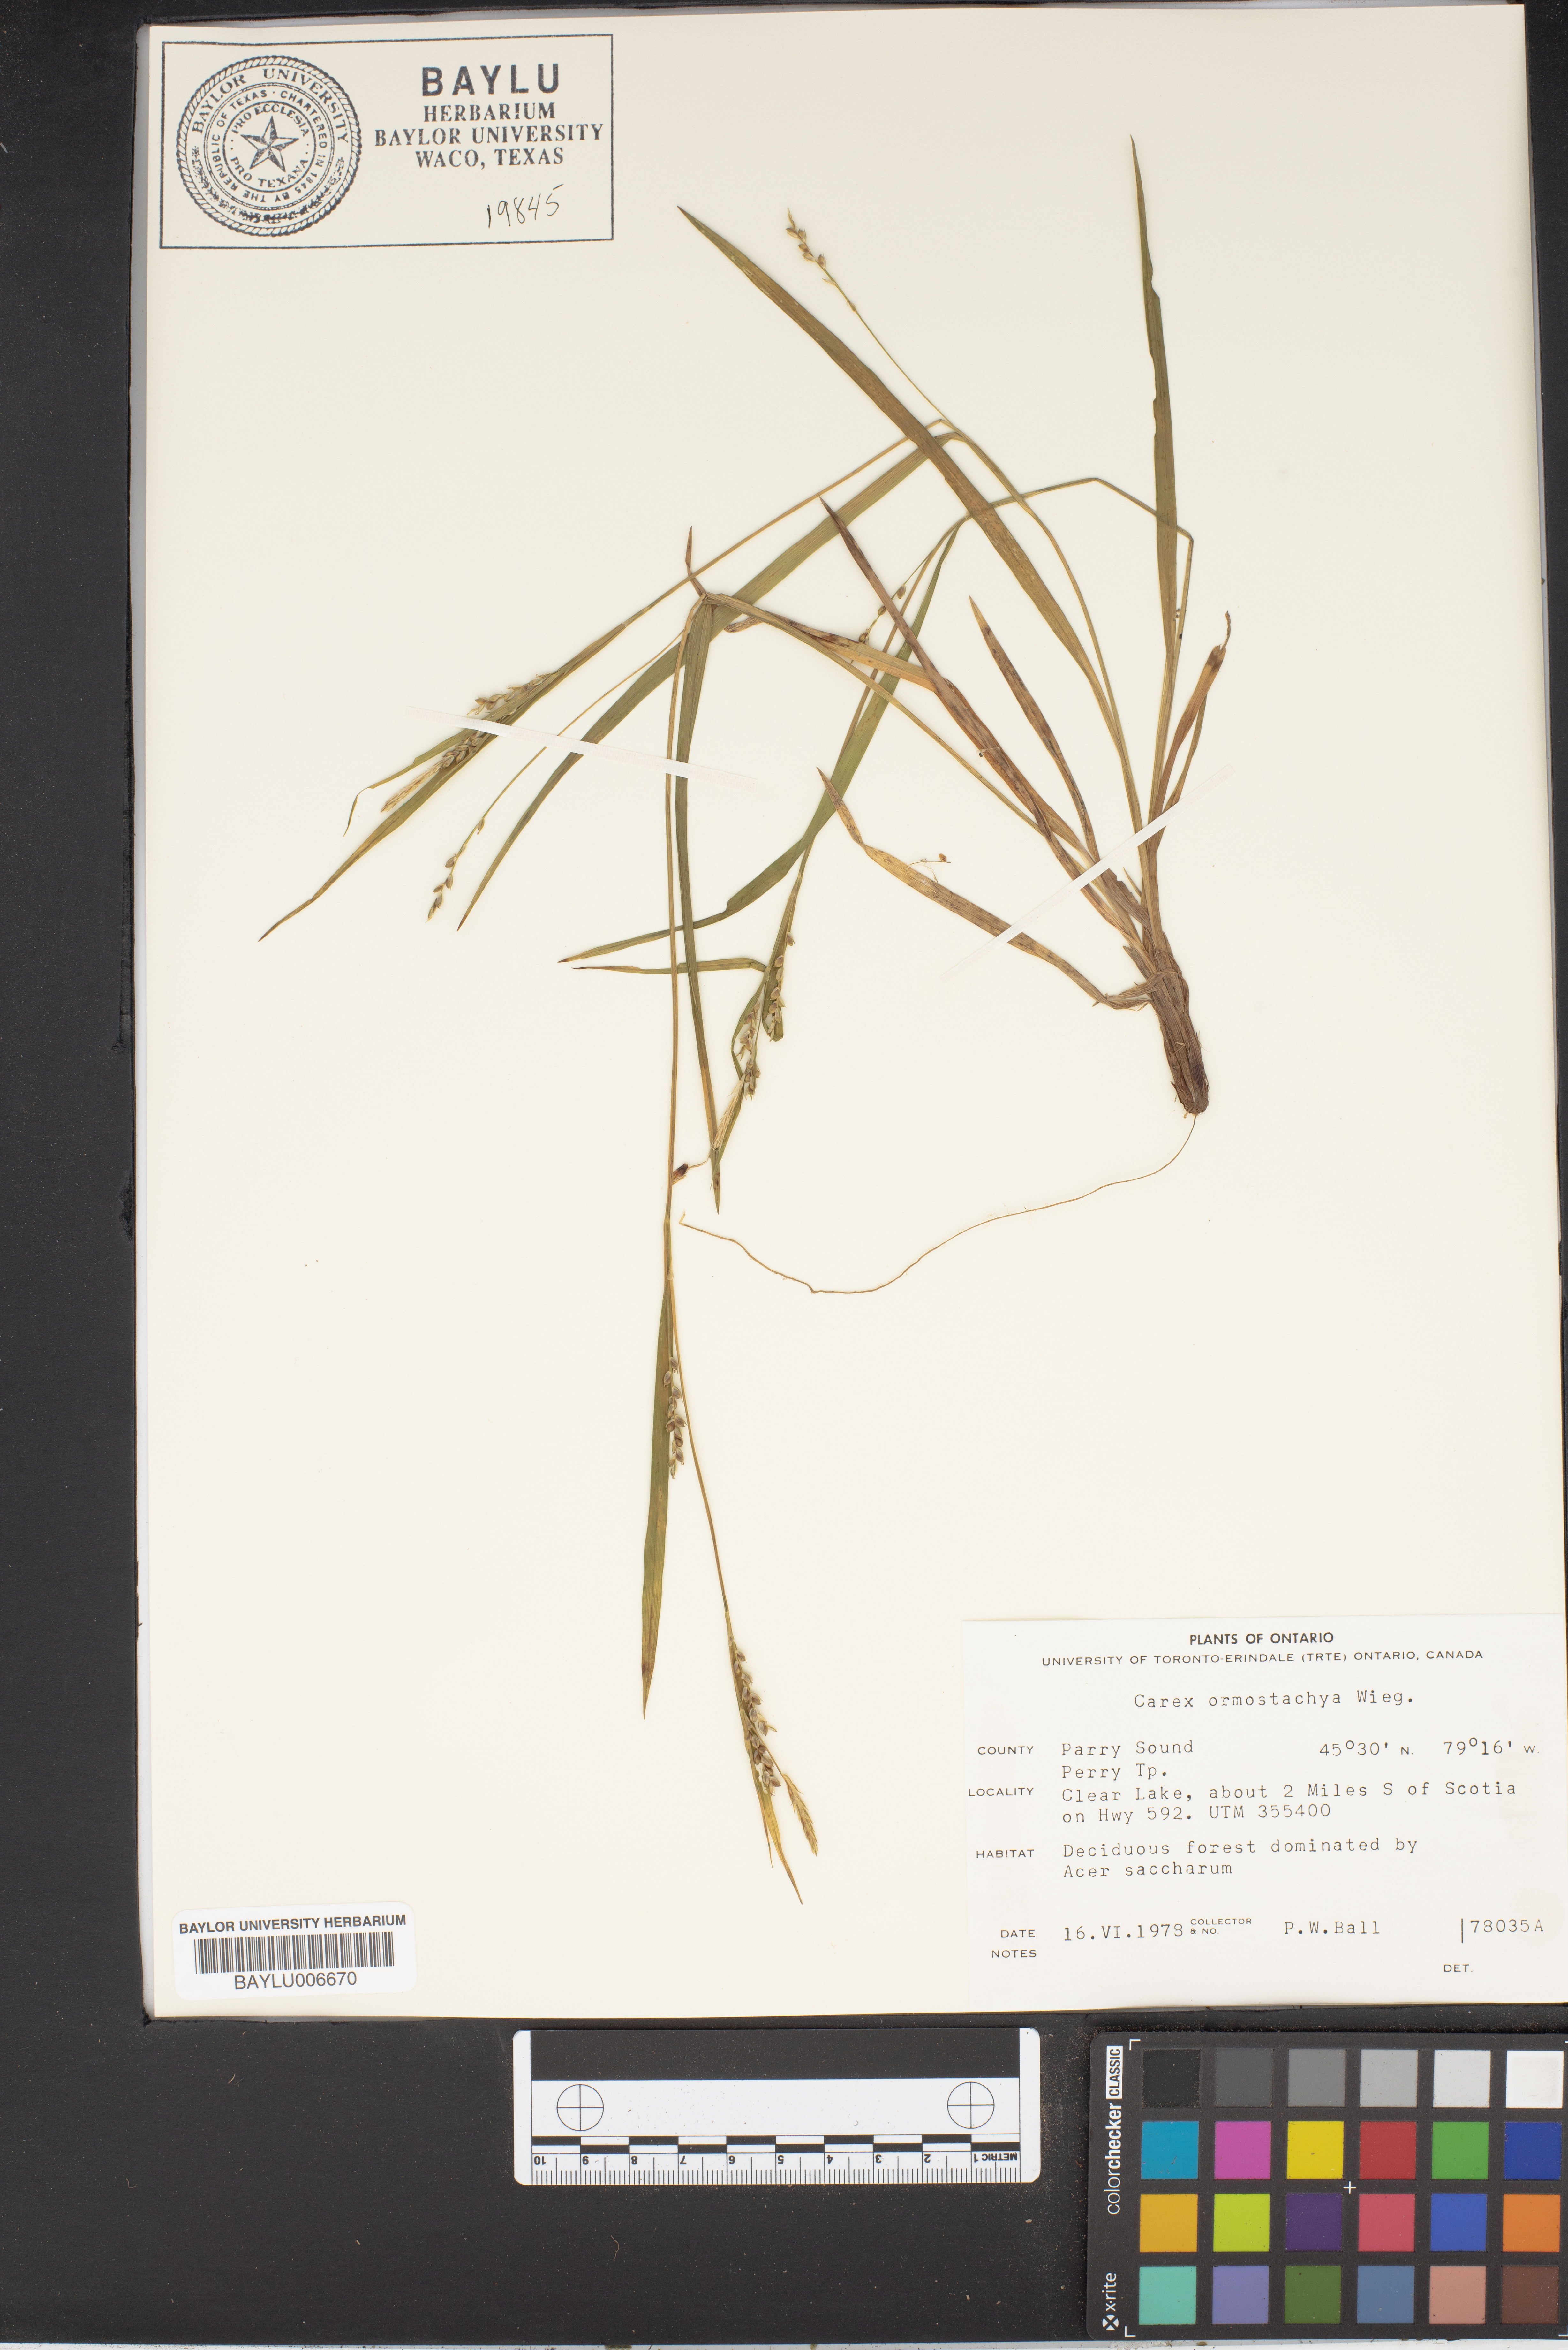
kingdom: Plantae
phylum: Tracheophyta
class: Liliopsida
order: Poales
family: Cyperaceae
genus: Carex
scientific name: Carex ormostachya
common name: Necklace spike sedge
